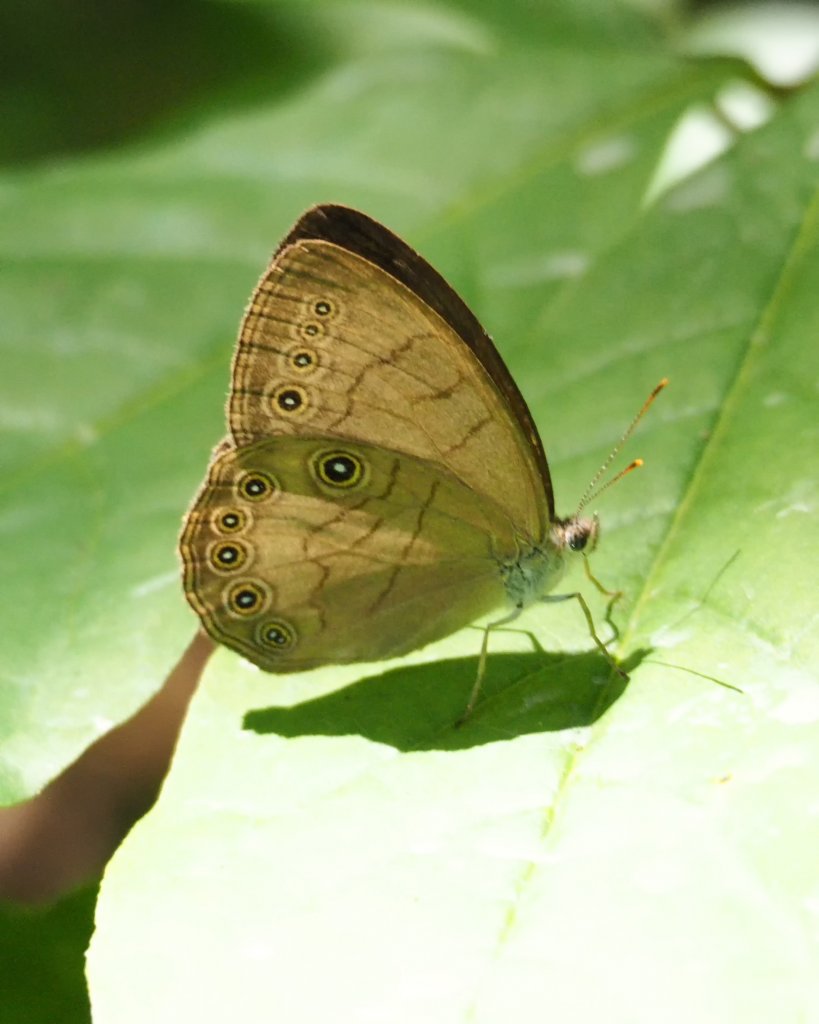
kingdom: Animalia
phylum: Arthropoda
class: Insecta
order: Lepidoptera
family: Nymphalidae
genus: Lethe
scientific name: Lethe eurydice
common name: Appalachian Eyed Brown
